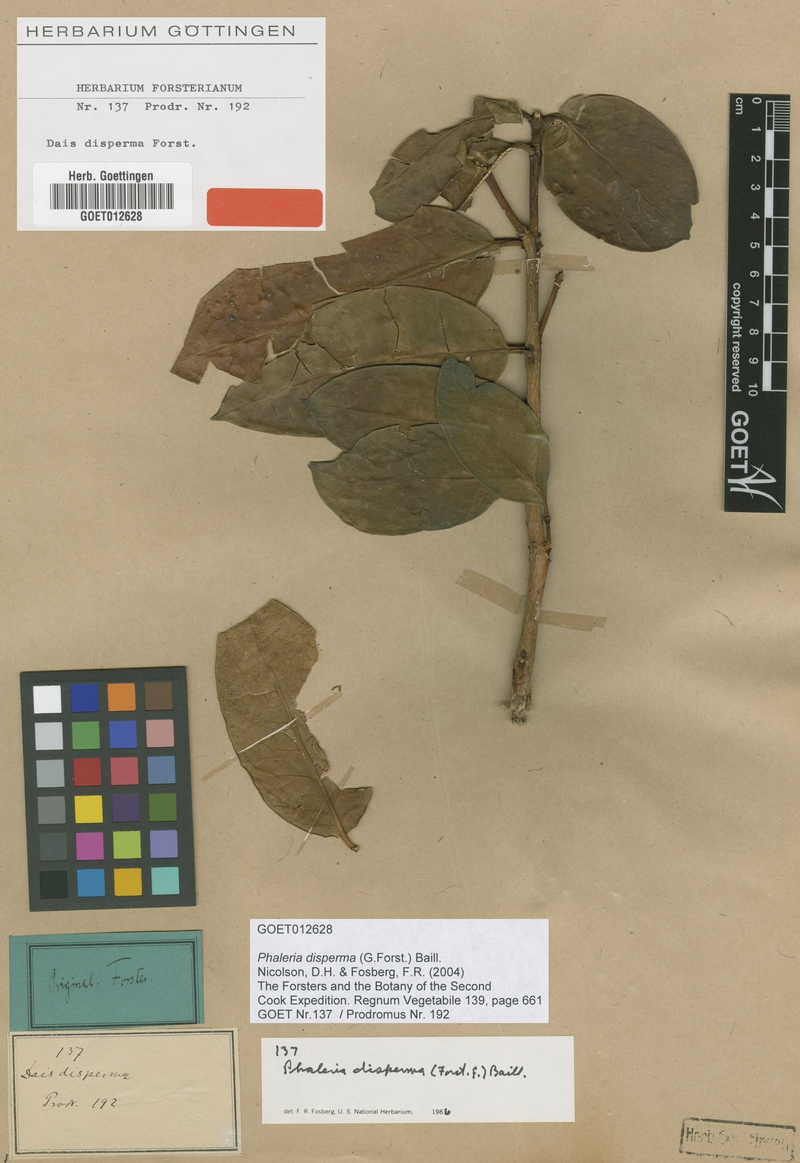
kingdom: Plantae
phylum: Tracheophyta
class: Magnoliopsida
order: Malvales
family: Thymelaeaceae
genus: Phaleria
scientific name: Phaleria disperma
